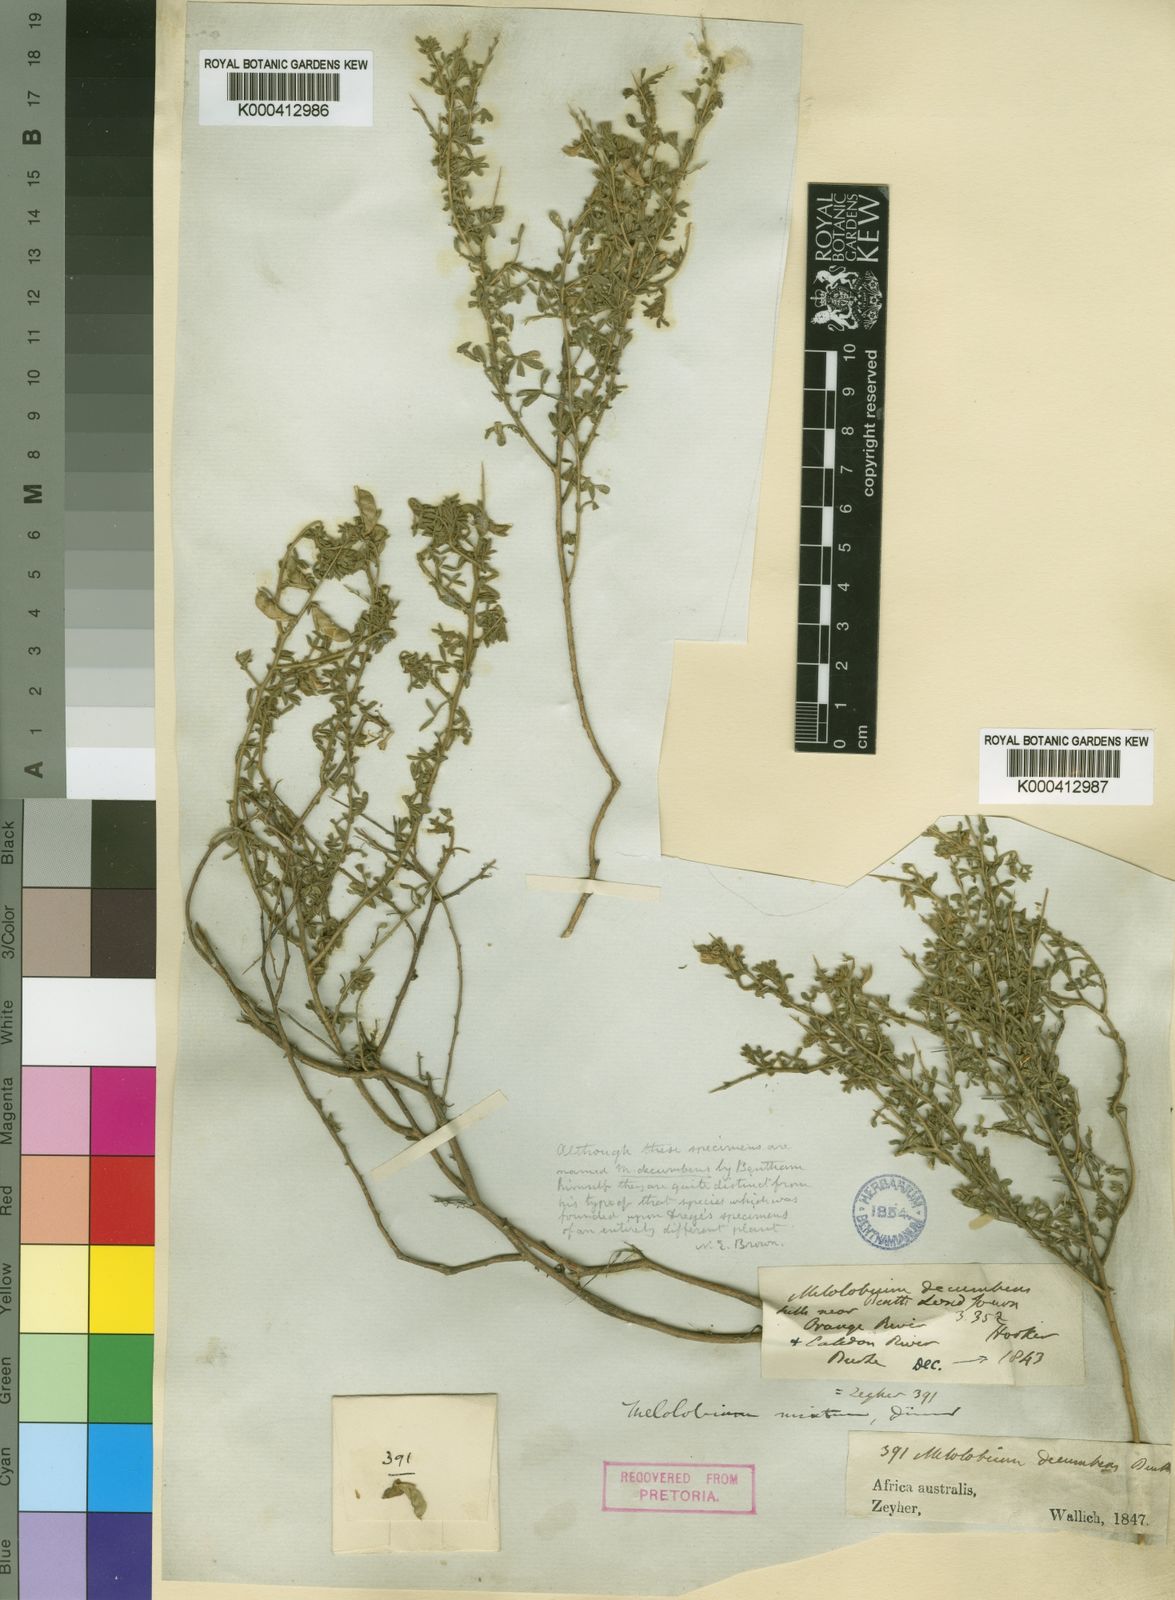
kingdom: Plantae
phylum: Tracheophyta
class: Magnoliopsida
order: Fabales
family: Fabaceae
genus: Melolobium
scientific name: Melolobium microphyllum
